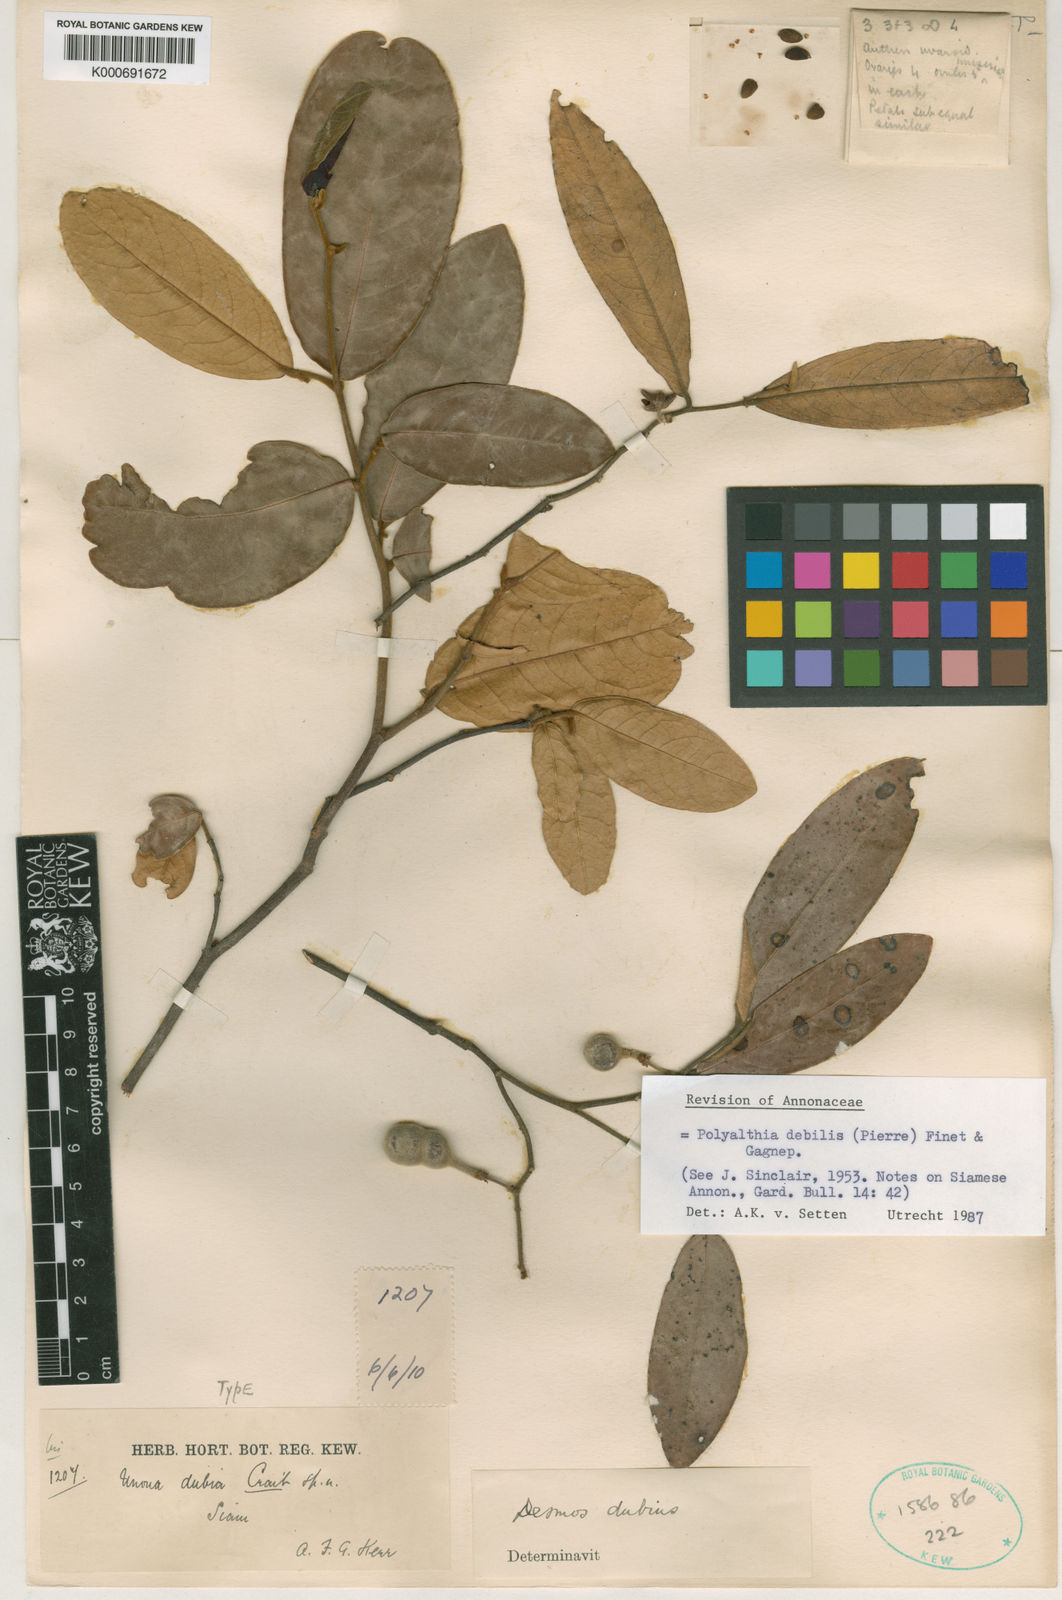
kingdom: Plantae
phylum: Tracheophyta
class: Magnoliopsida
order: Magnoliales
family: Annonaceae
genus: Polyalthia
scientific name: Polyalthia
